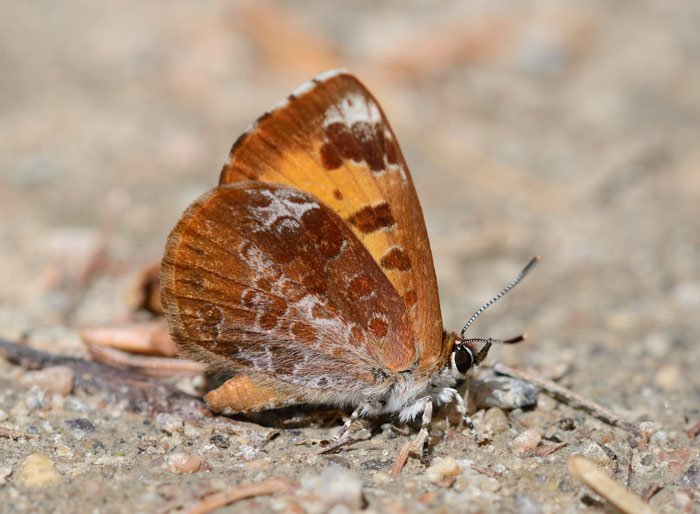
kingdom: Animalia
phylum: Arthropoda
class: Insecta
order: Lepidoptera
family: Lycaenidae
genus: Feniseca
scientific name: Feniseca tarquinius
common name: Harvester
